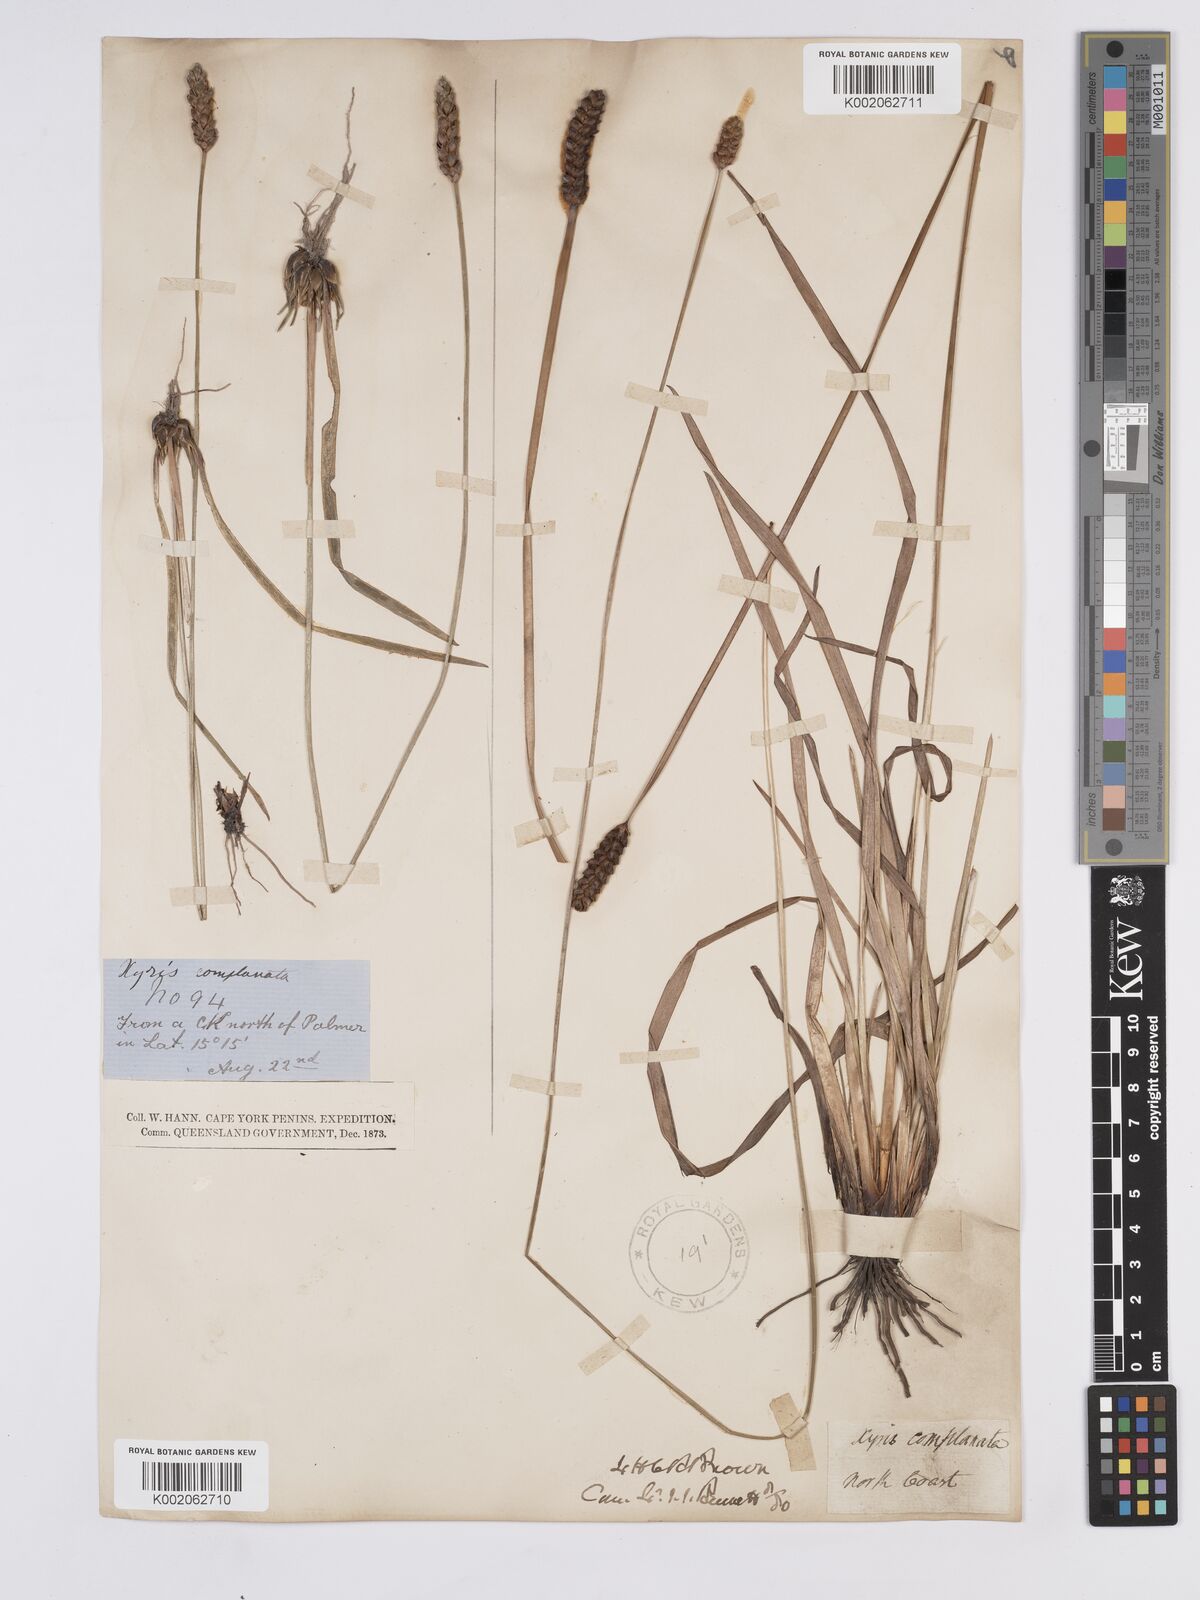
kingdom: Plantae
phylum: Tracheophyta
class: Liliopsida
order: Poales
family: Xyridaceae
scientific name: Xyridaceae
